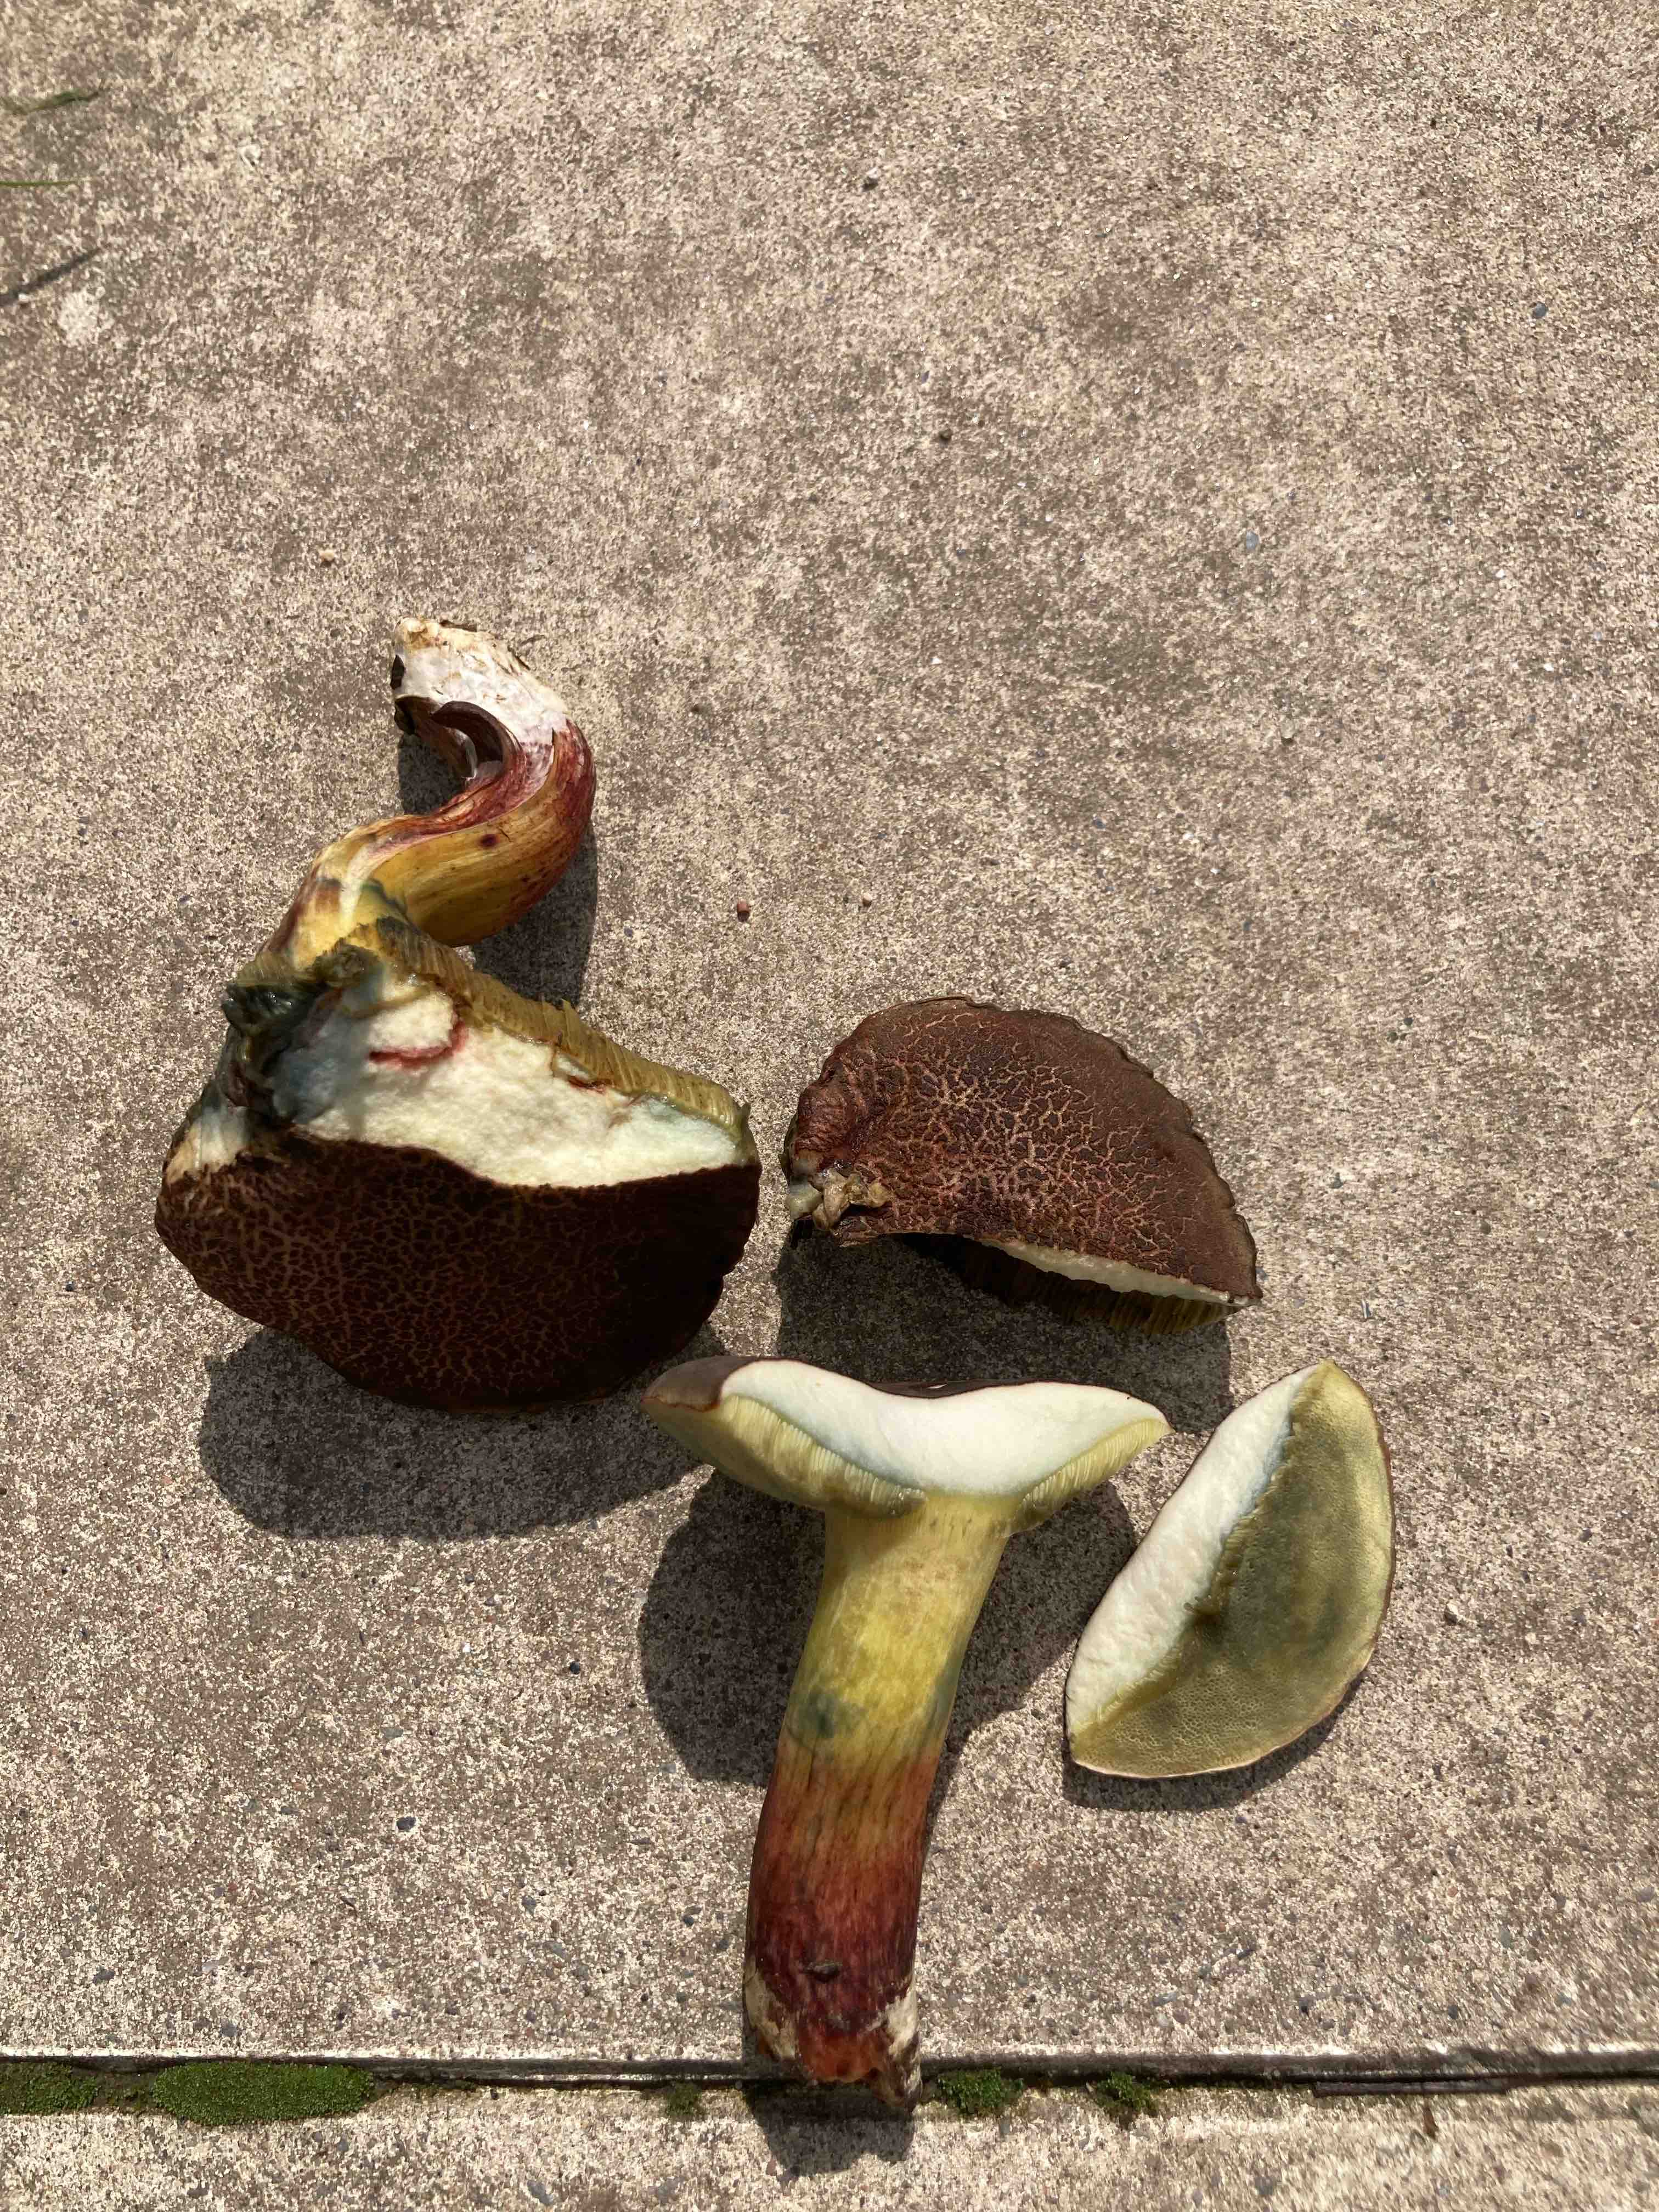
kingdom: Fungi
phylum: Basidiomycota
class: Agaricomycetes
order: Boletales
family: Boletaceae
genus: Xerocomellus
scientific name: Xerocomellus cisalpinus
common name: finsprukken rørhat
